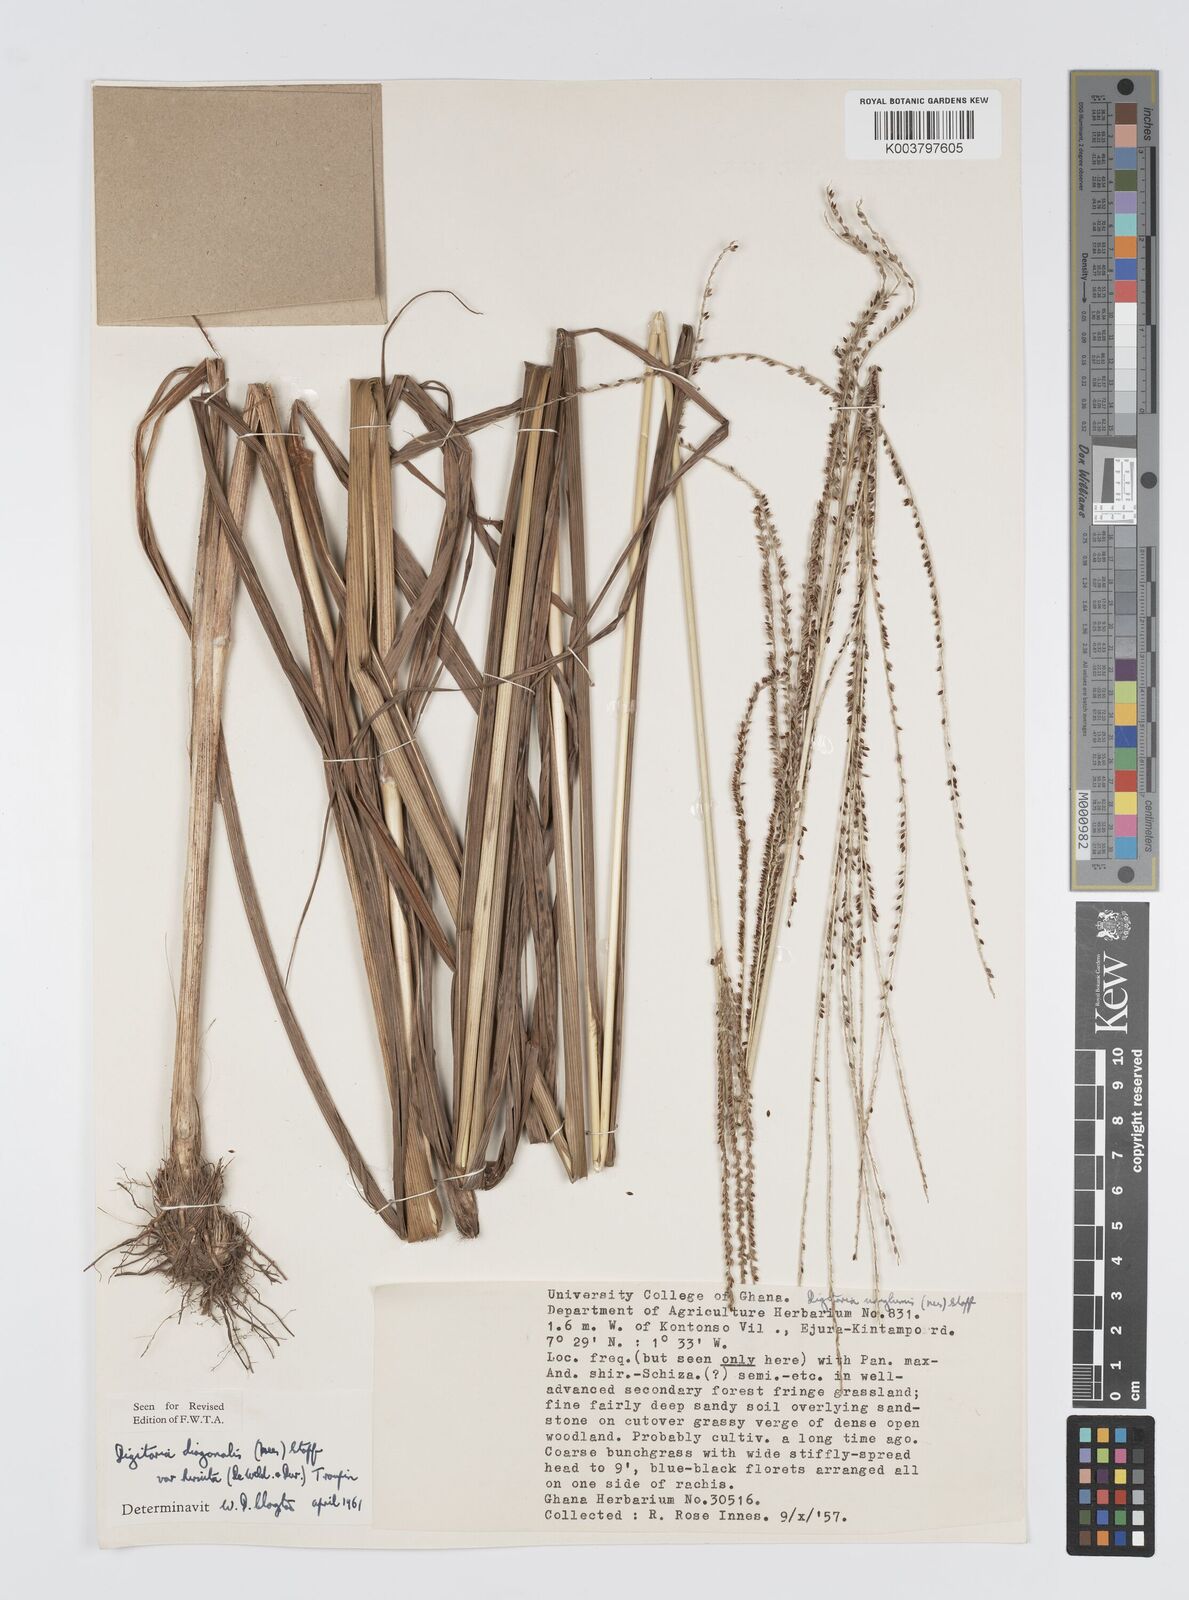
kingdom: Plantae
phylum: Tracheophyta
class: Liliopsida
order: Poales
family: Poaceae
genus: Digitaria
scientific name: Digitaria diagonalis
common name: Brown-seed finger grass
